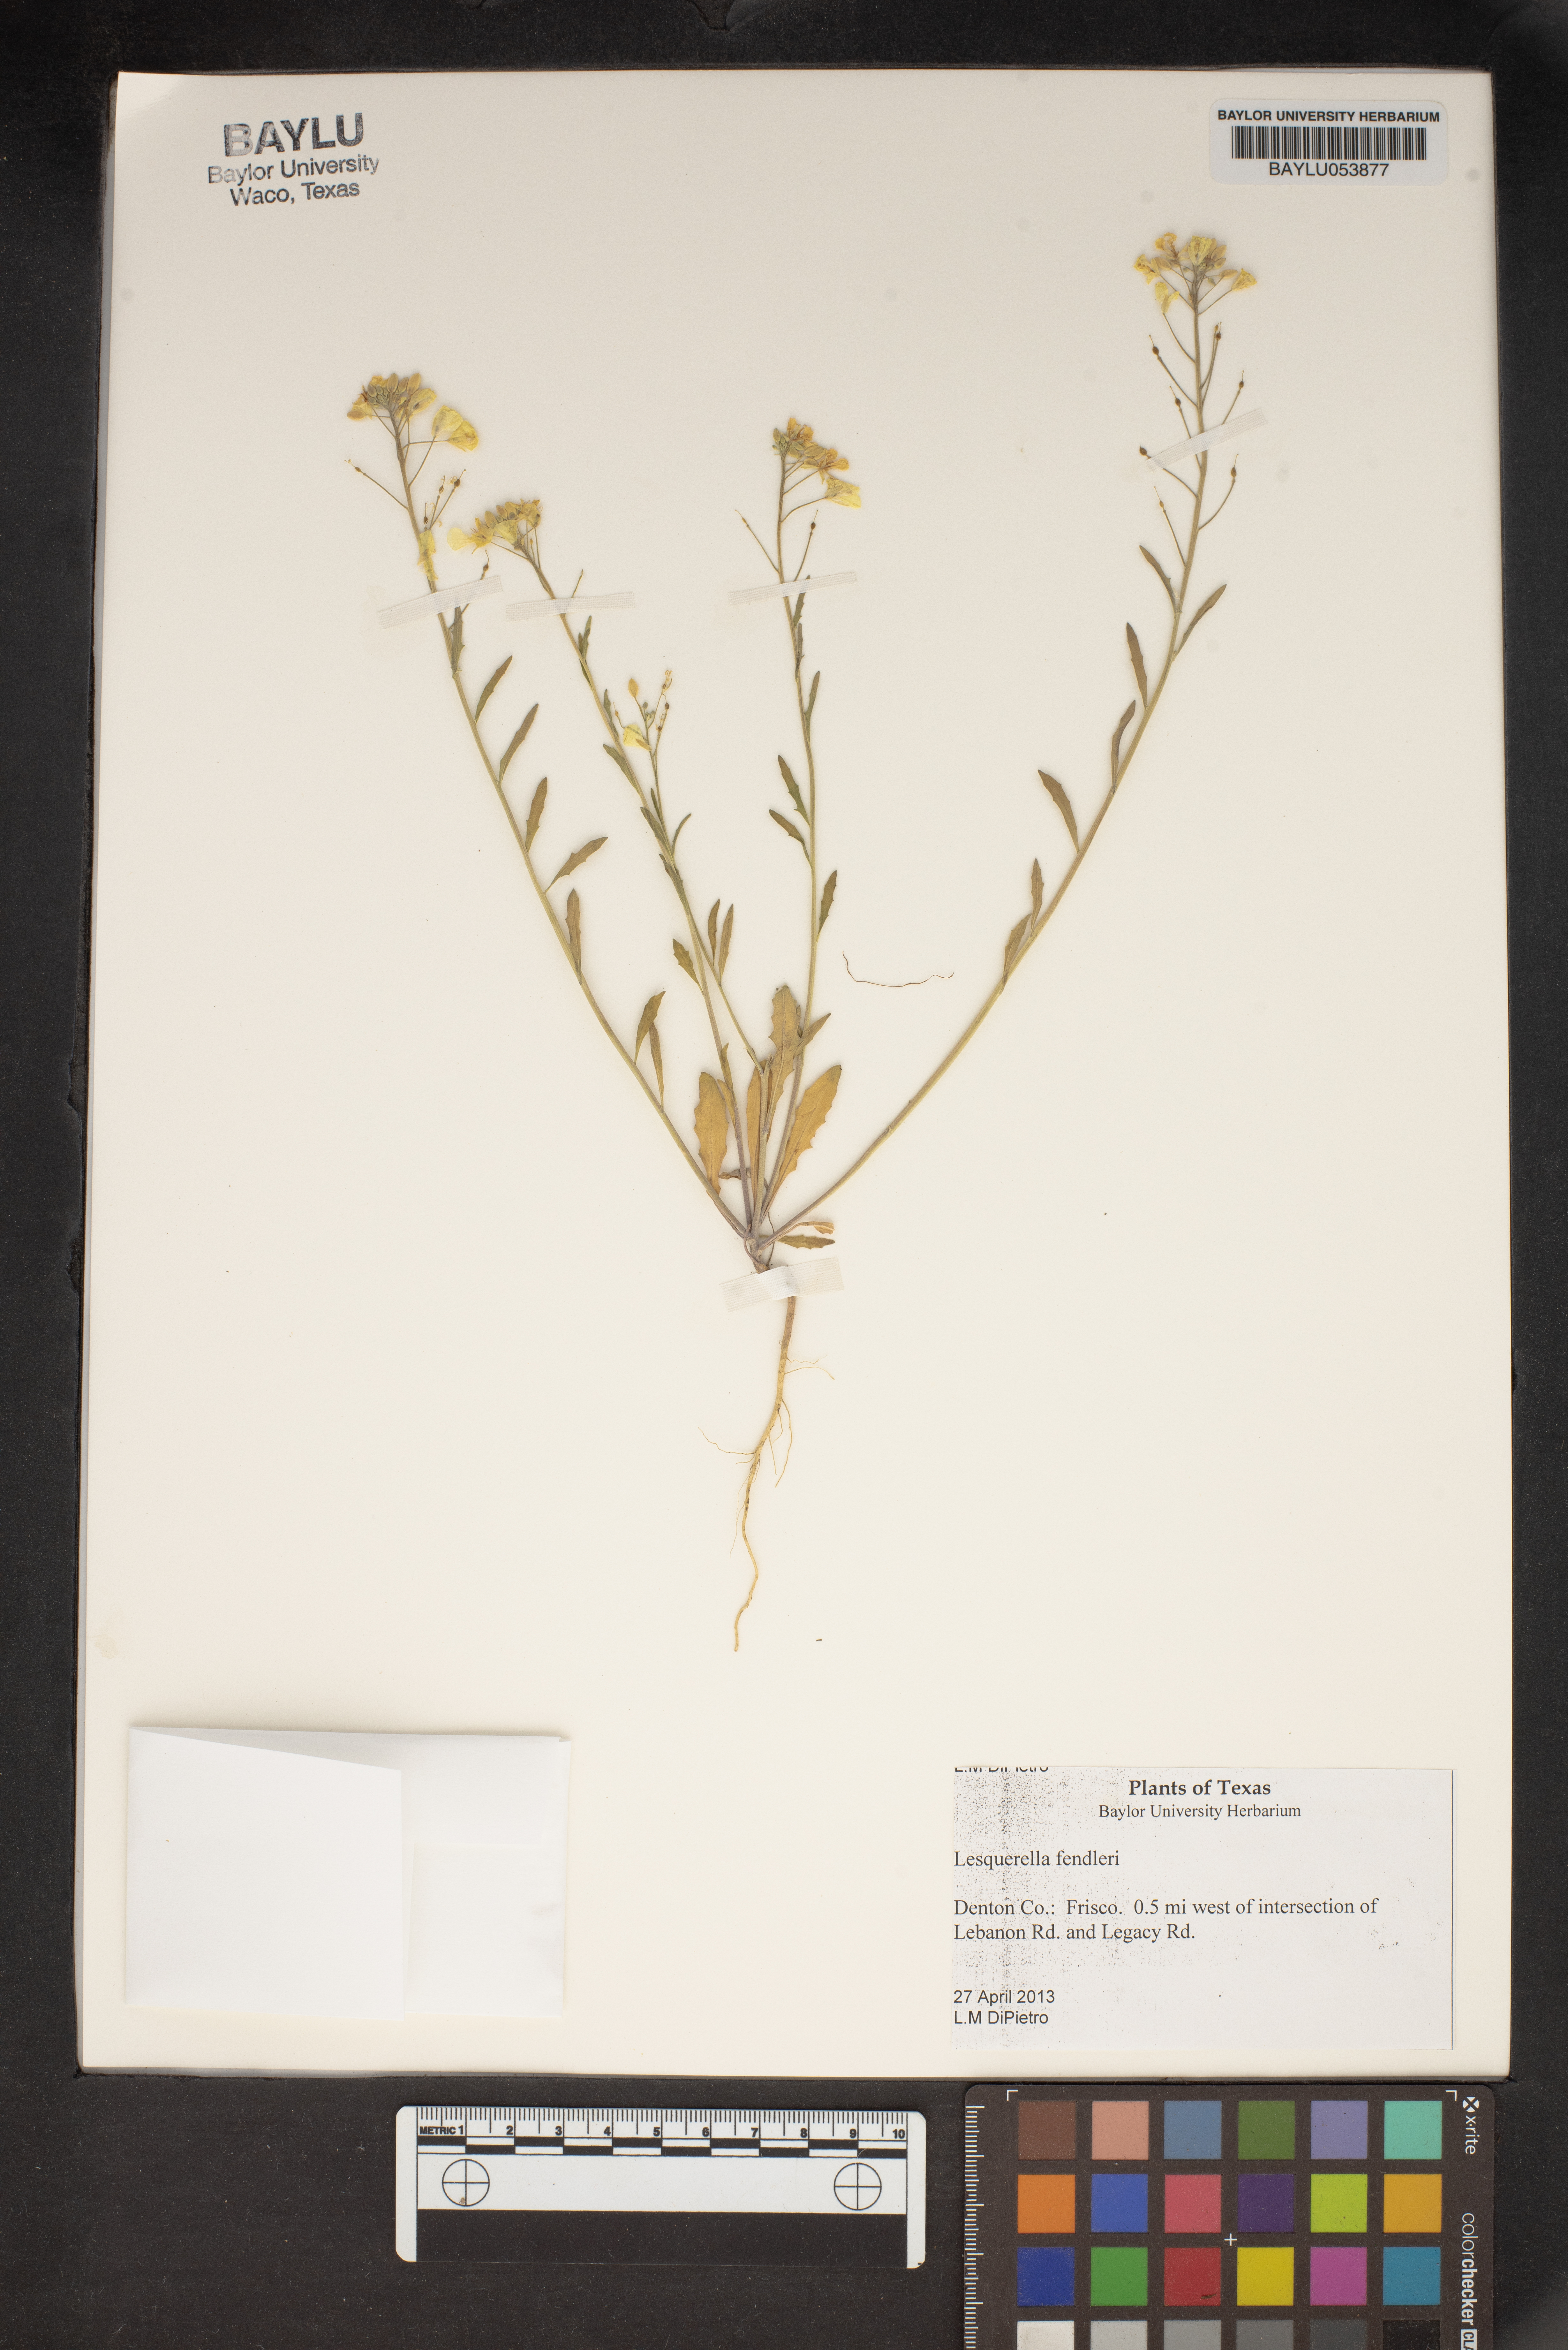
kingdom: Plantae
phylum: Tracheophyta
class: Magnoliopsida
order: Brassicales
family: Brassicaceae
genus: Physaria
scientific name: Physaria fendleri
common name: Fendler's bladderpod
